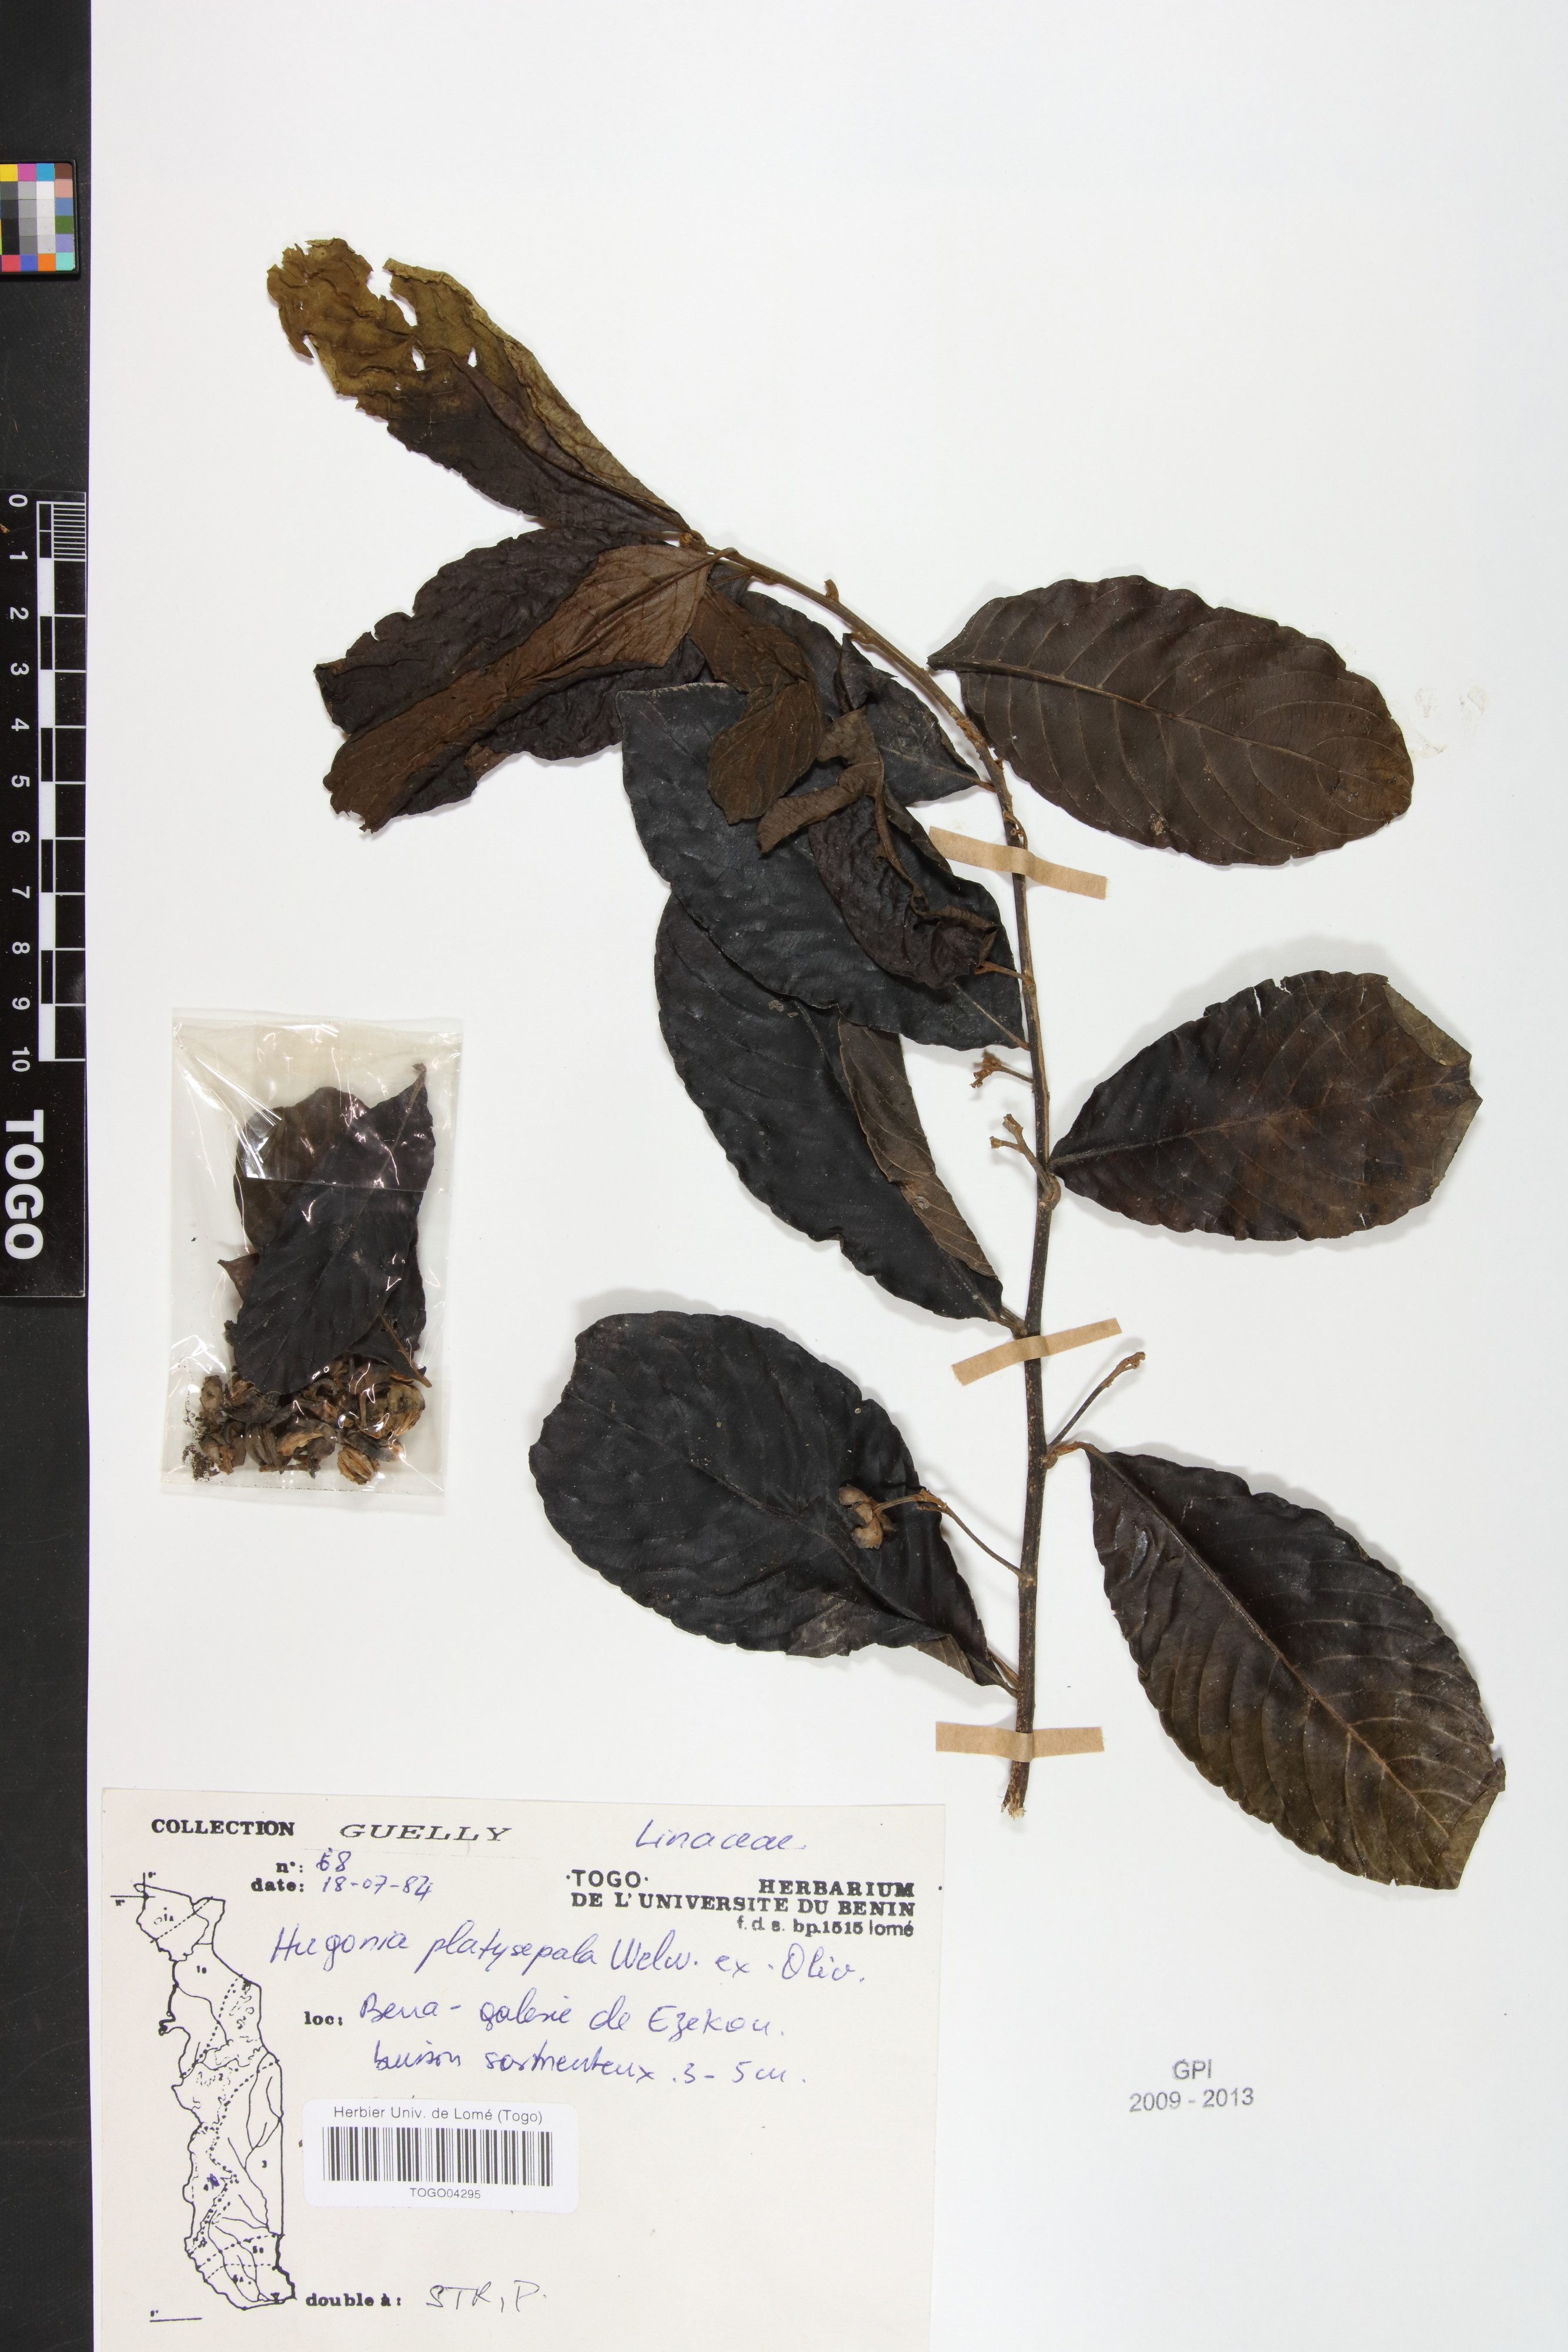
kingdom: Plantae
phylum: Tracheophyta
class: Magnoliopsida
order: Malpighiales
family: Linaceae
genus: Hugonia
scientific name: Hugonia platysepala
